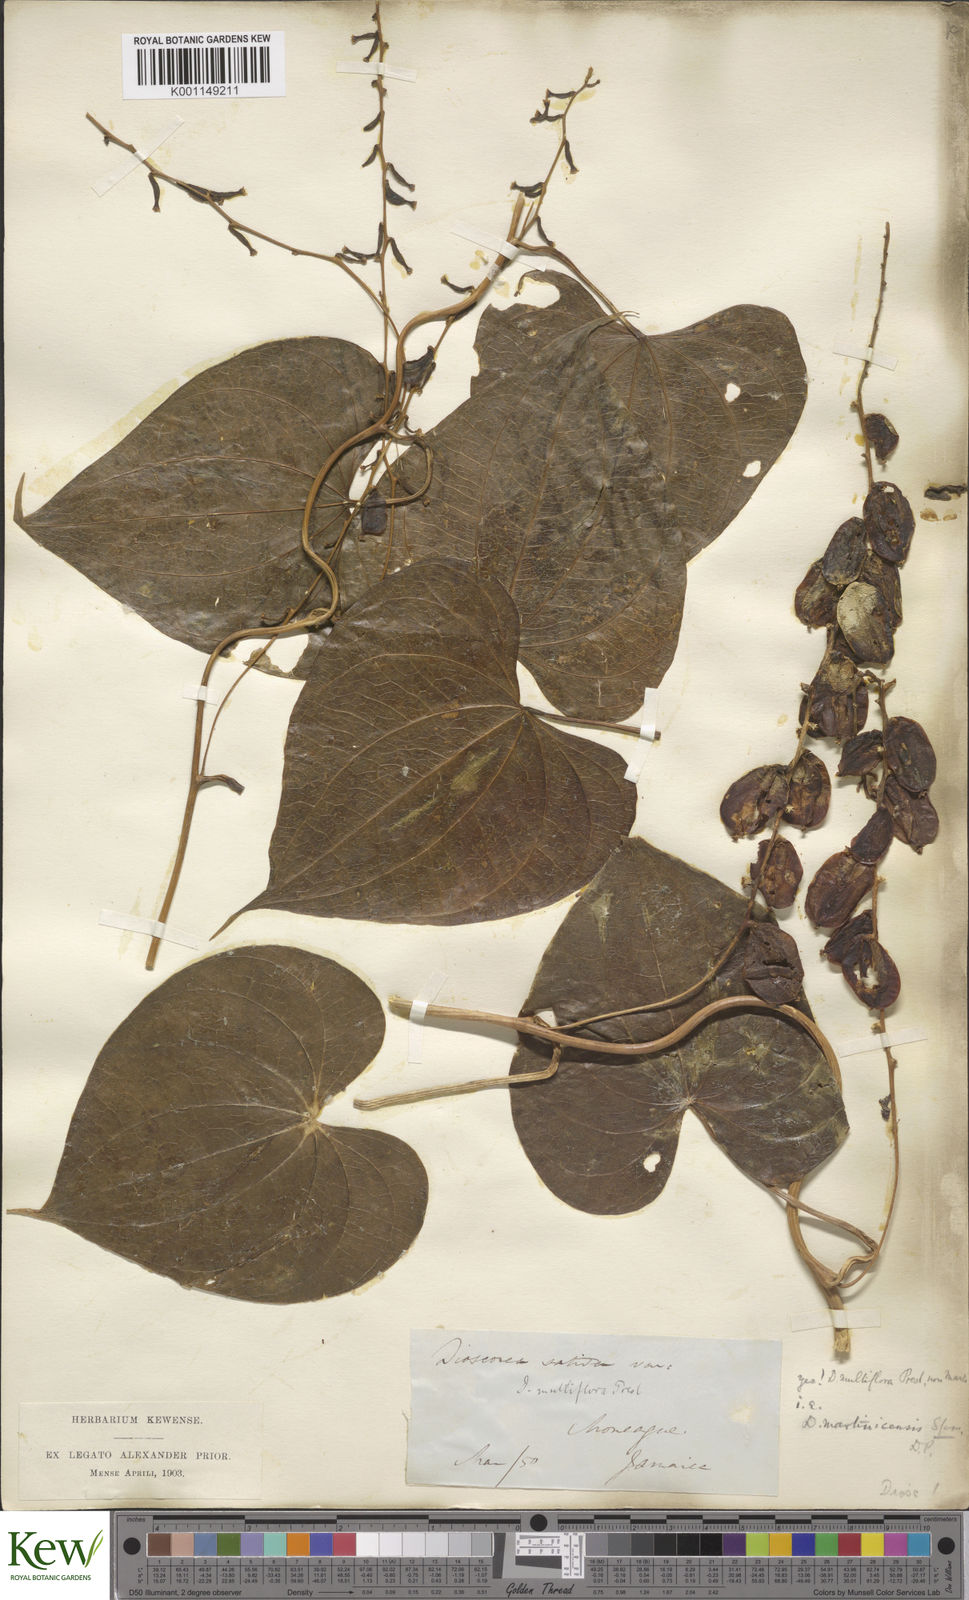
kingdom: Plantae
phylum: Tracheophyta
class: Liliopsida
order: Dioscoreales
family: Dioscoreaceae
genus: Dioscorea
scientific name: Dioscorea
